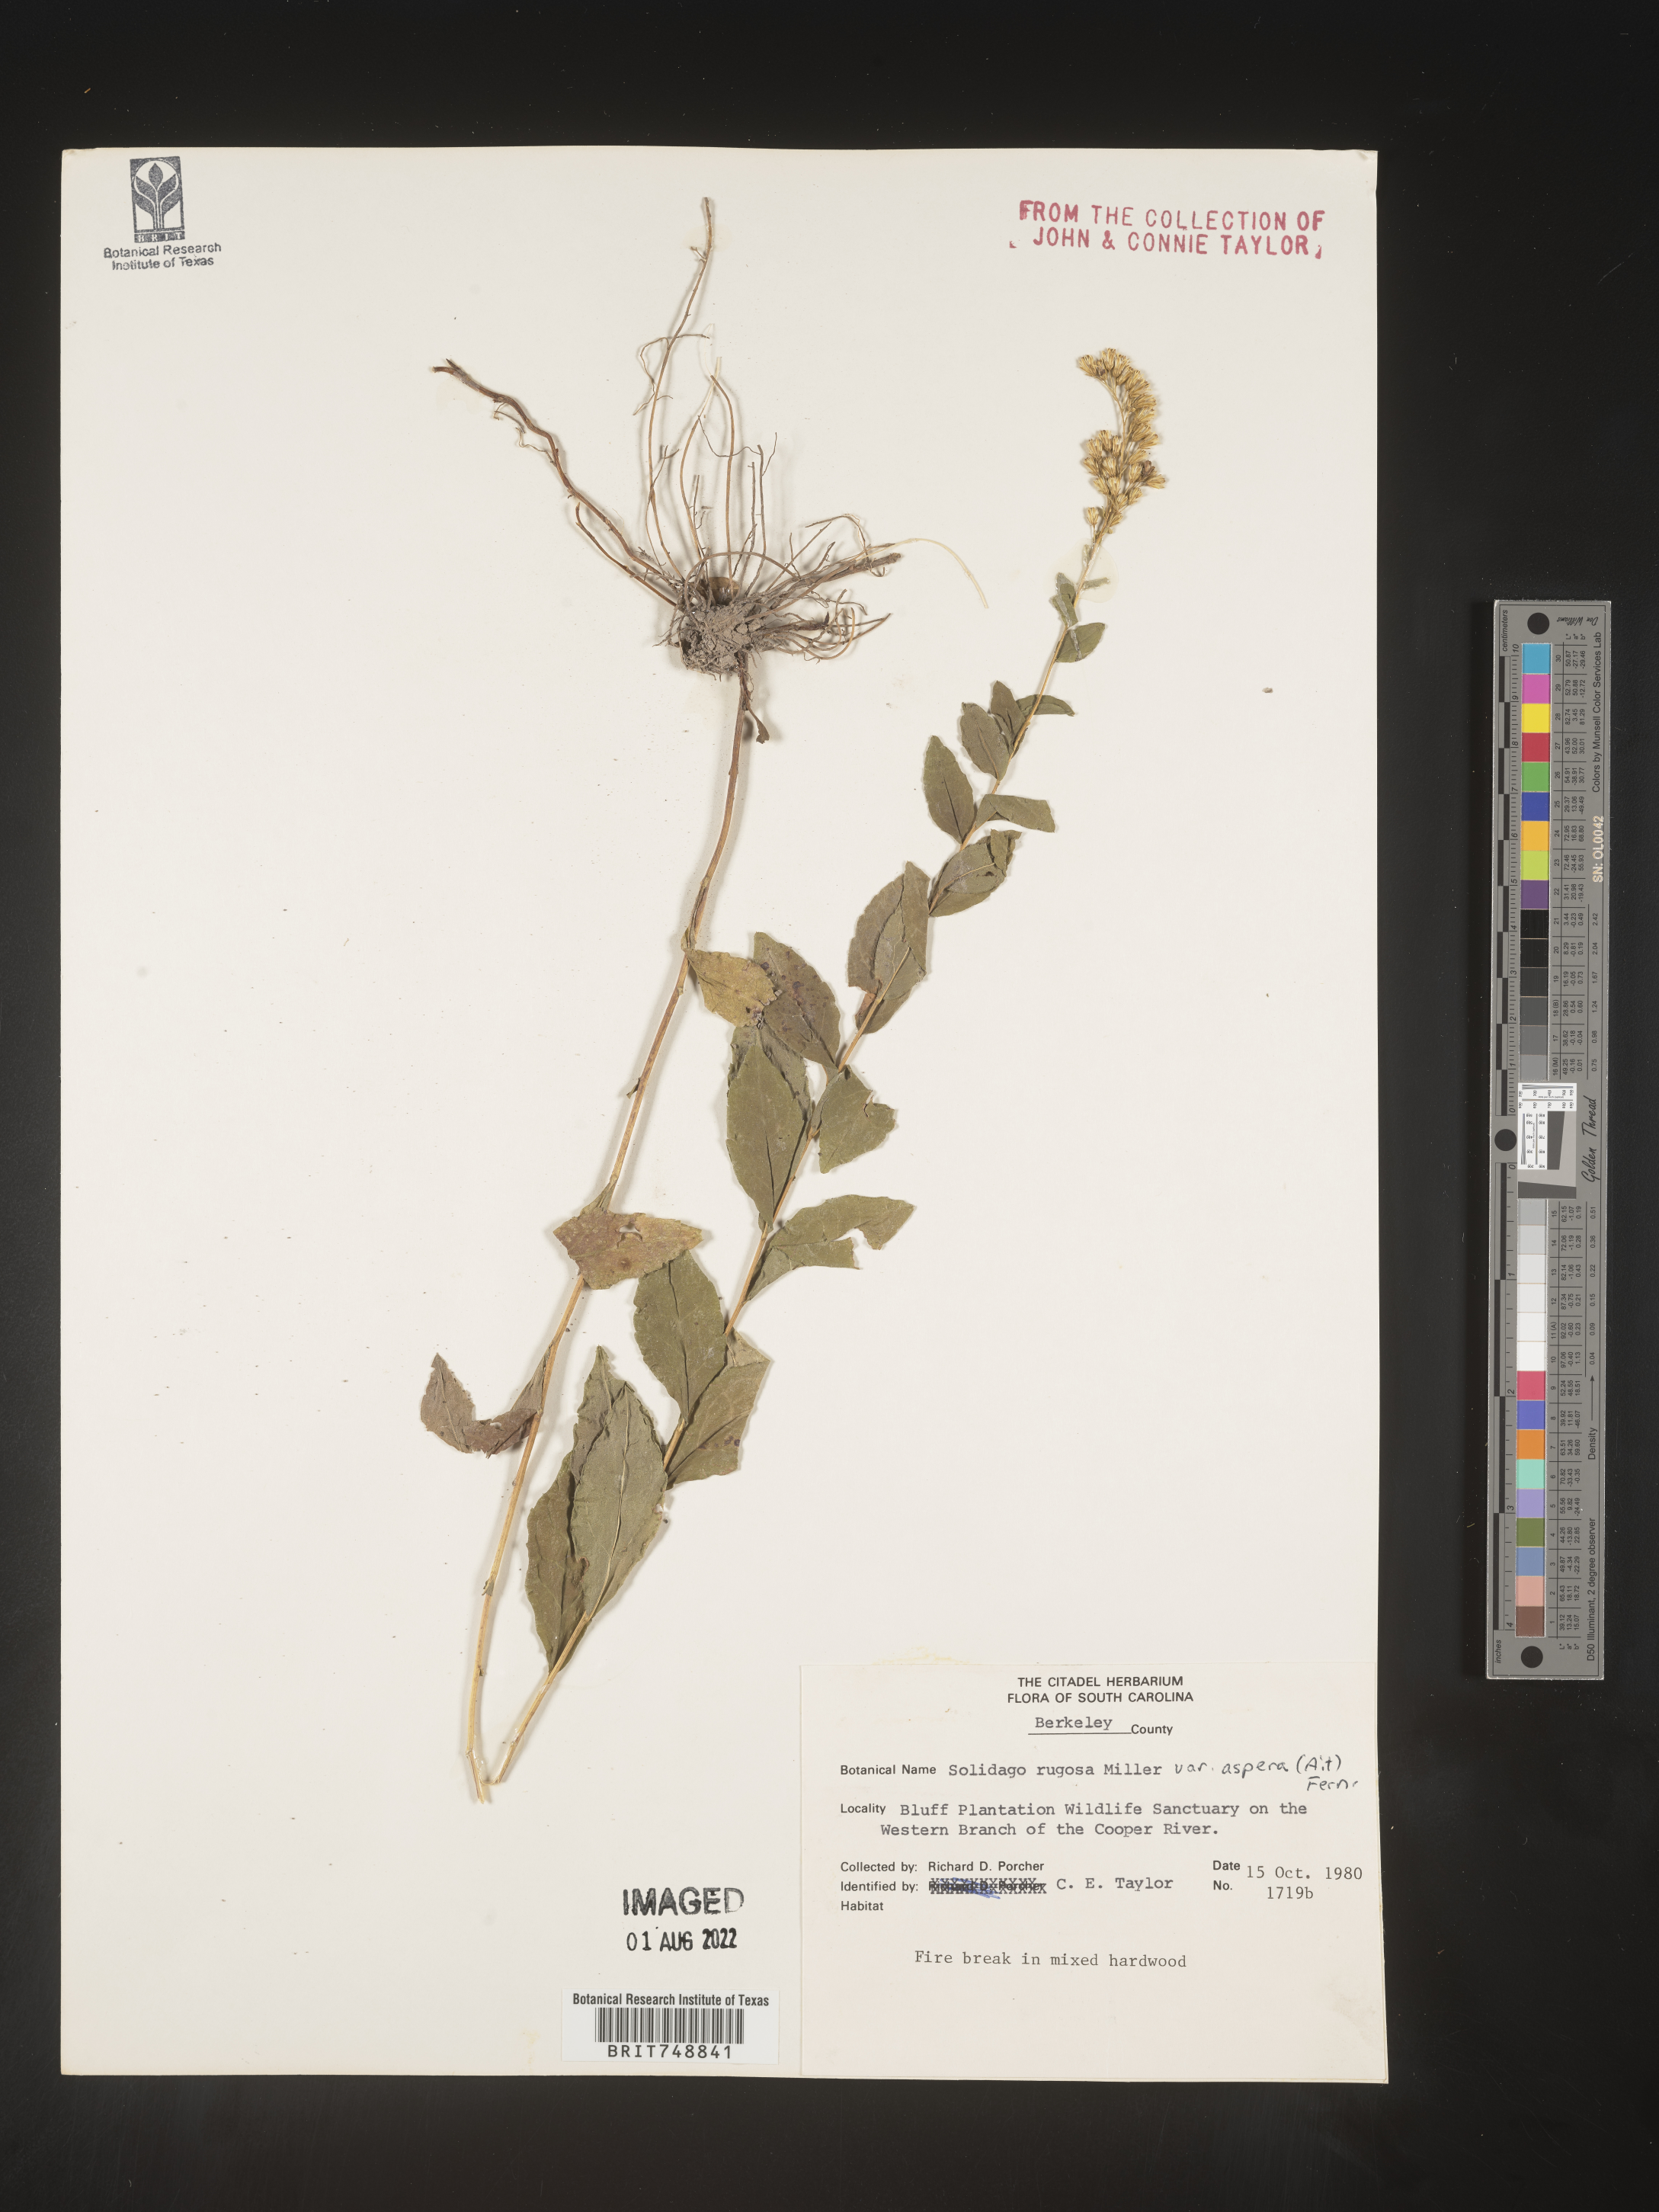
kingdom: Plantae
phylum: Tracheophyta
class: Magnoliopsida
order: Asterales
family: Asteraceae
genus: Solidago
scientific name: Solidago rugosa
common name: Rough-stemmed goldenrod
